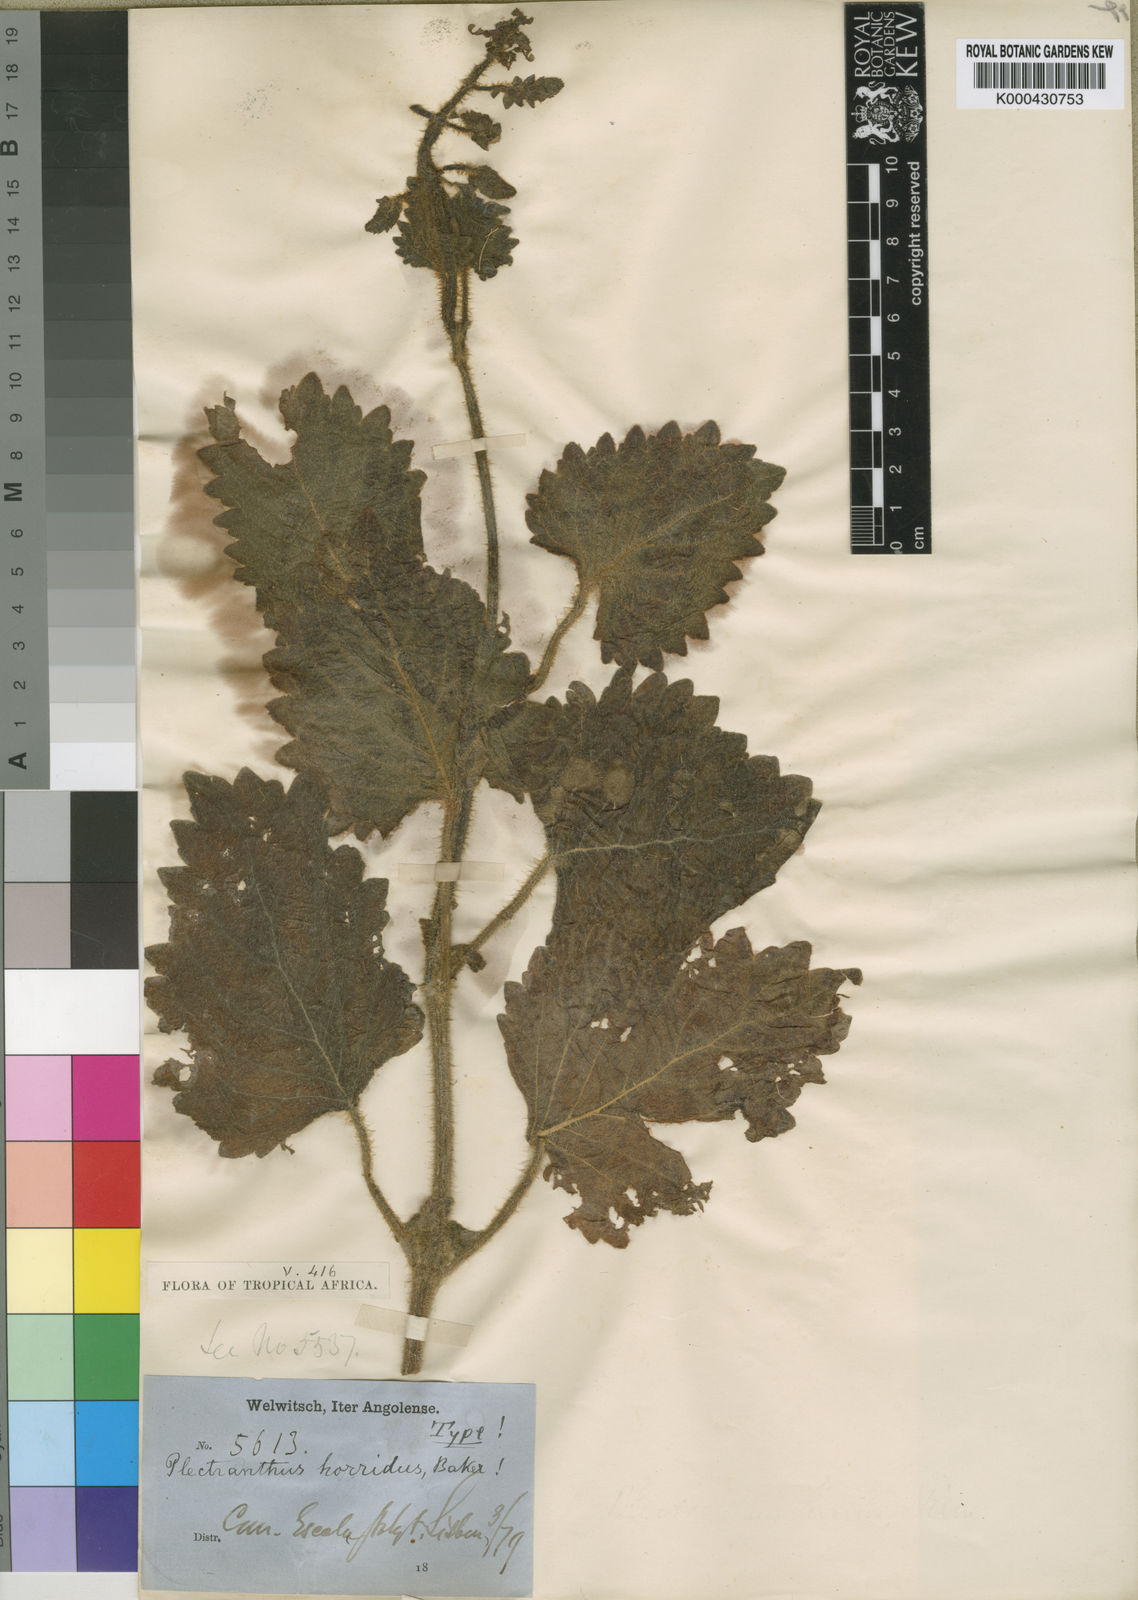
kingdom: Plantae
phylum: Tracheophyta
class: Magnoliopsida
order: Lamiales
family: Lamiaceae
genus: Coleus
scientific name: Coleus hadiensis
